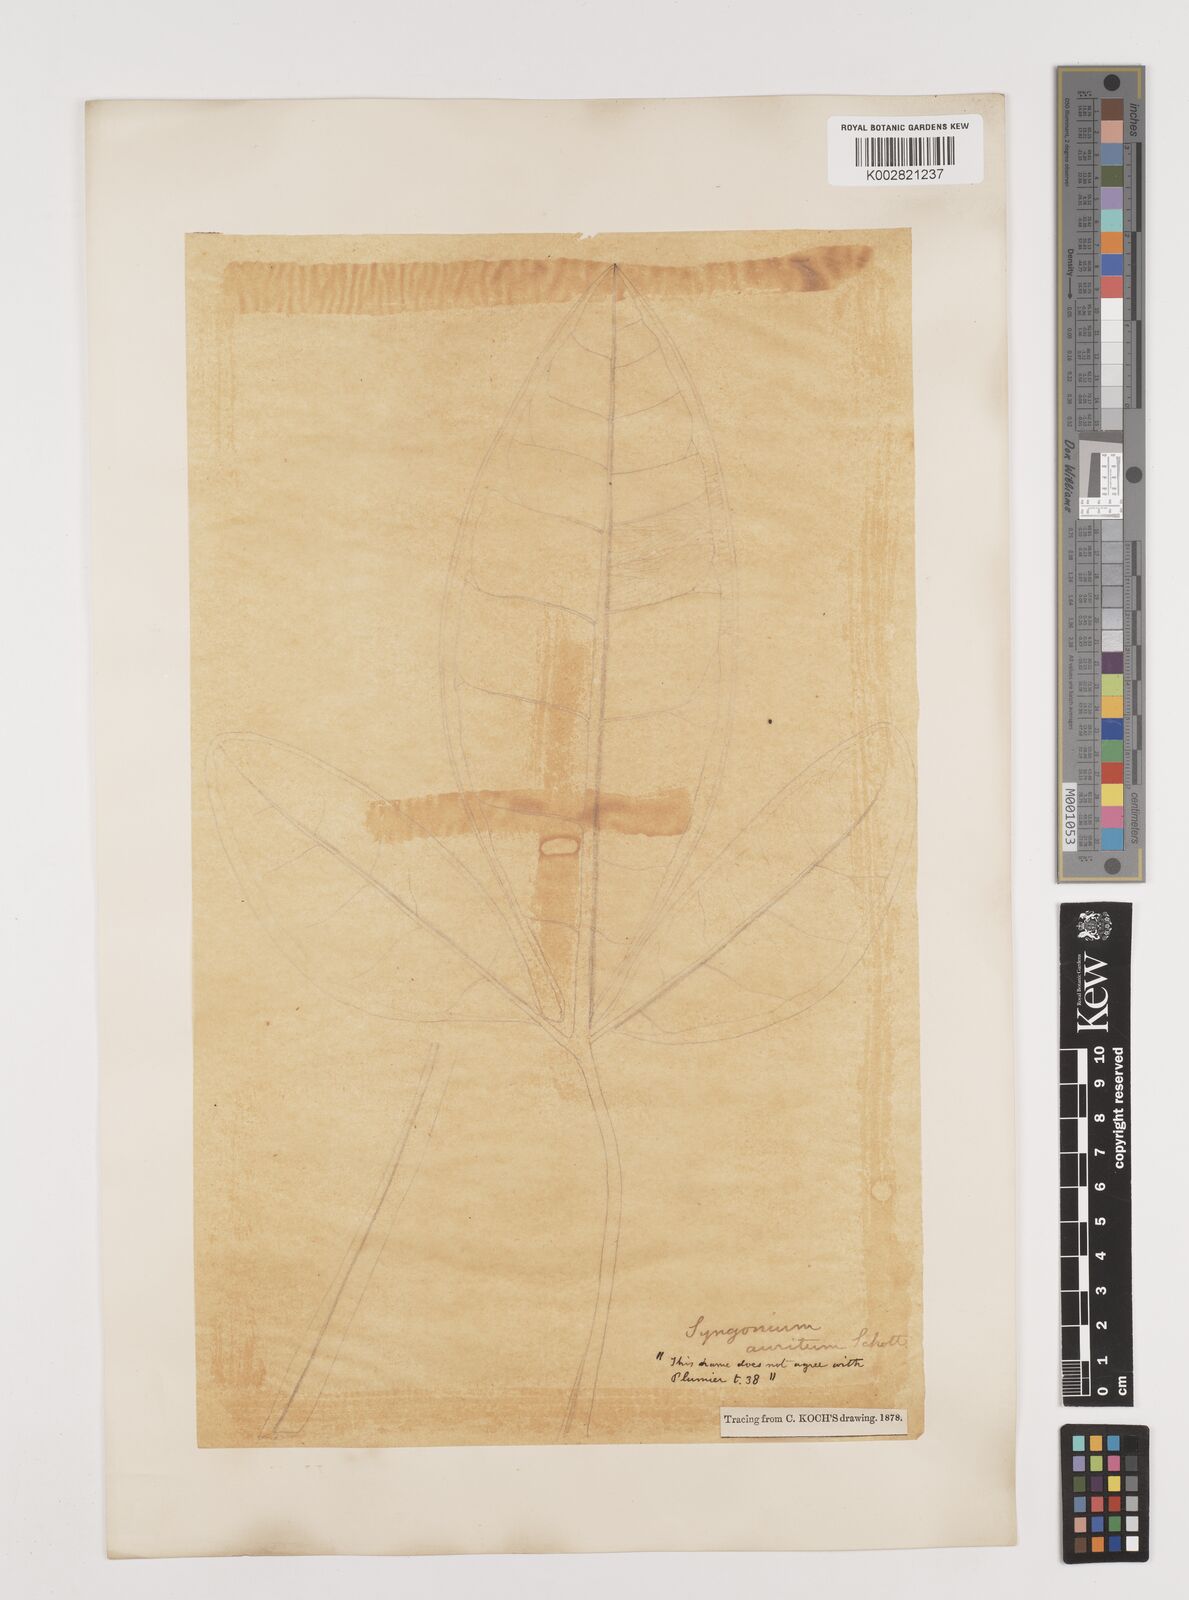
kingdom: Plantae
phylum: Tracheophyta
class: Liliopsida
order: Alismatales
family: Araceae
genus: Syngonium
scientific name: Syngonium auritum
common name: Five-fingers
